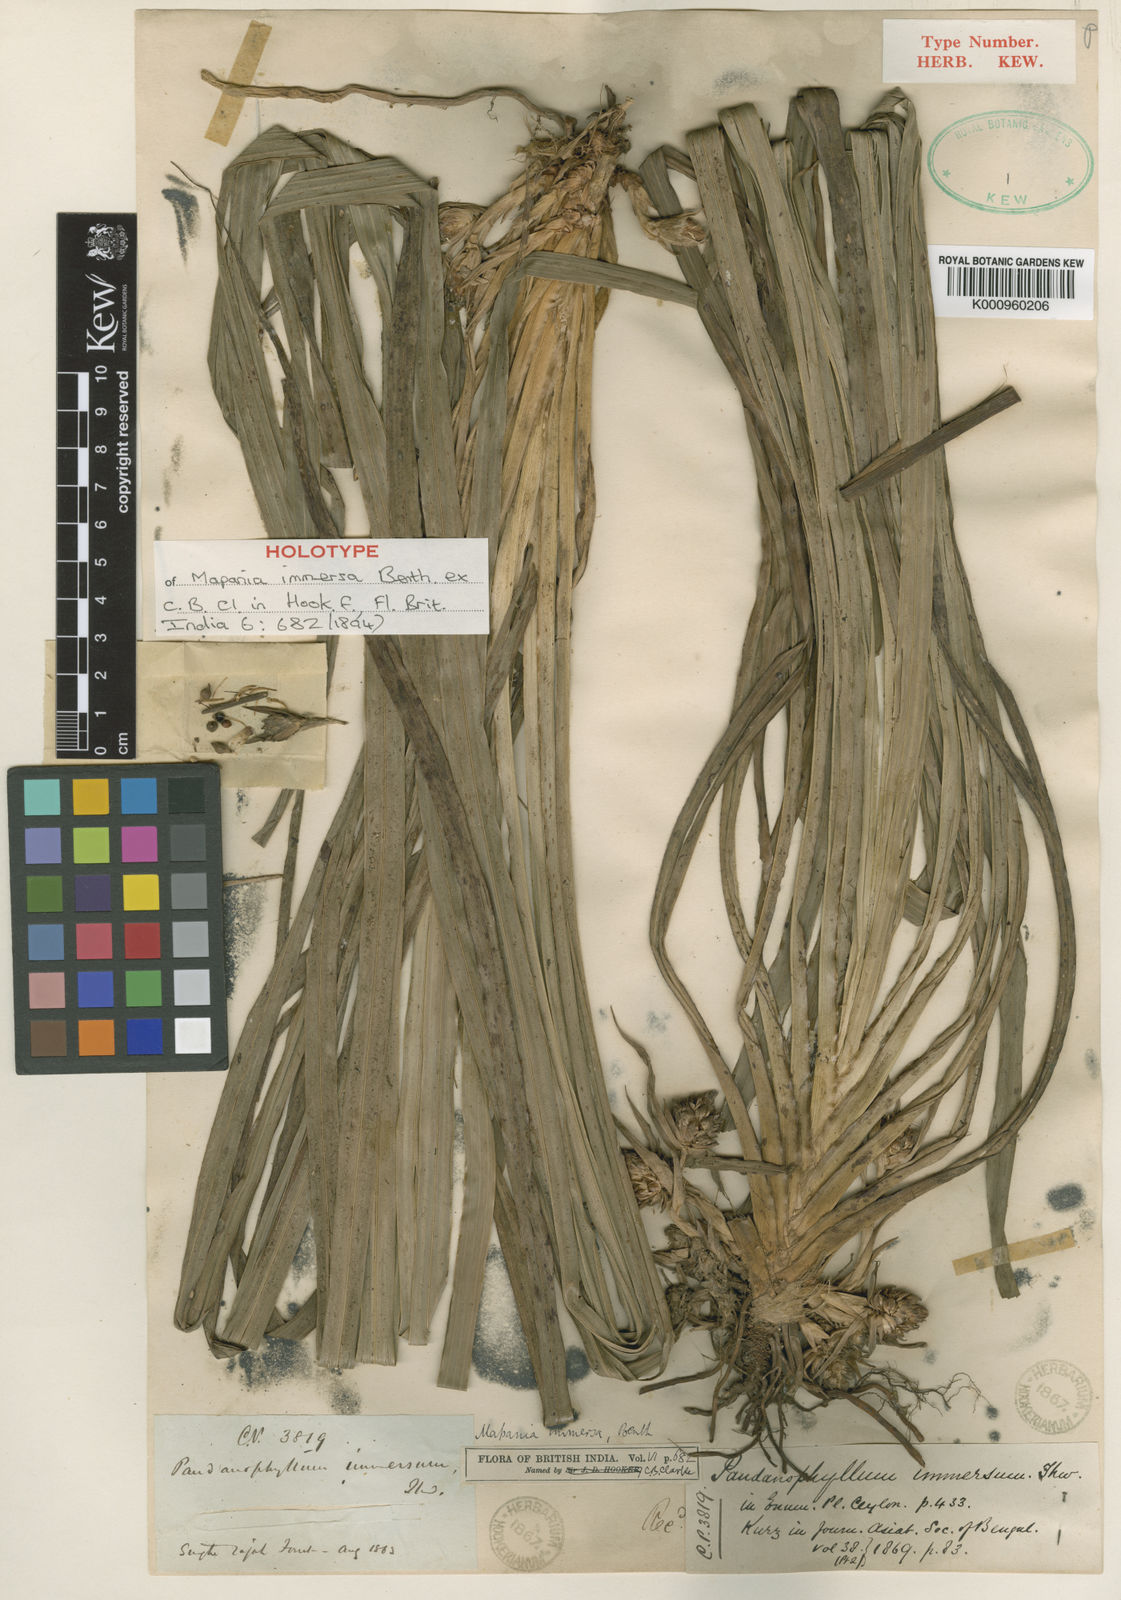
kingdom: Plantae
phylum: Tracheophyta
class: Liliopsida
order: Poales
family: Cyperaceae
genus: Mapania
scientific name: Mapania immersa
